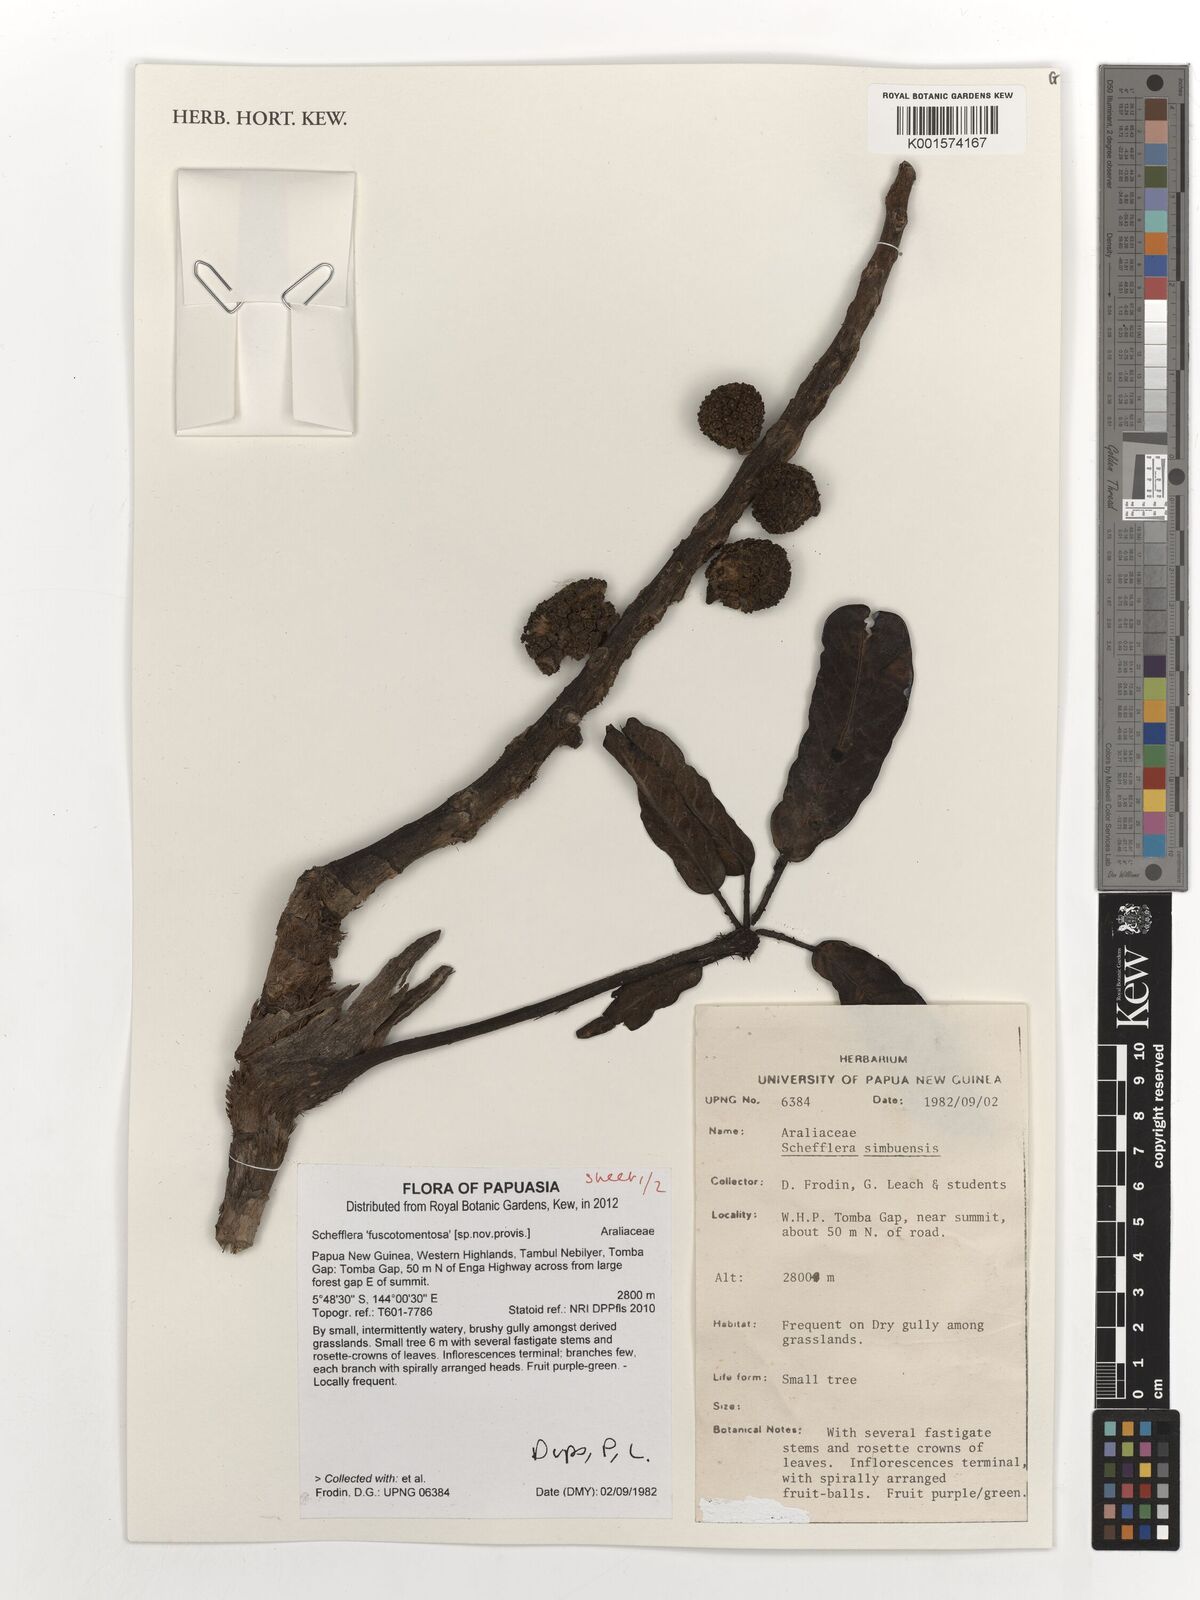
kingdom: Plantae
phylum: Tracheophyta
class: Magnoliopsida
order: Apiales
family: Araliaceae
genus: Schefflera
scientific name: Schefflera
